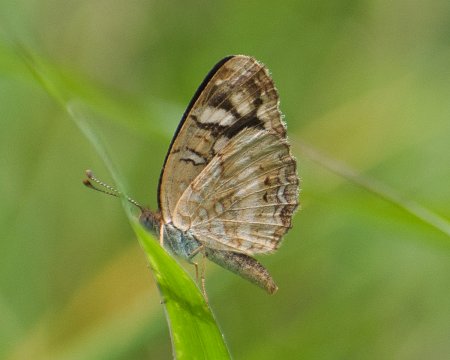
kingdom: Animalia
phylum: Arthropoda
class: Insecta
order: Lepidoptera
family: Nymphalidae
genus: Anthanassa
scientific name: Anthanassa tulcis
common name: Pale-banded Crescent
